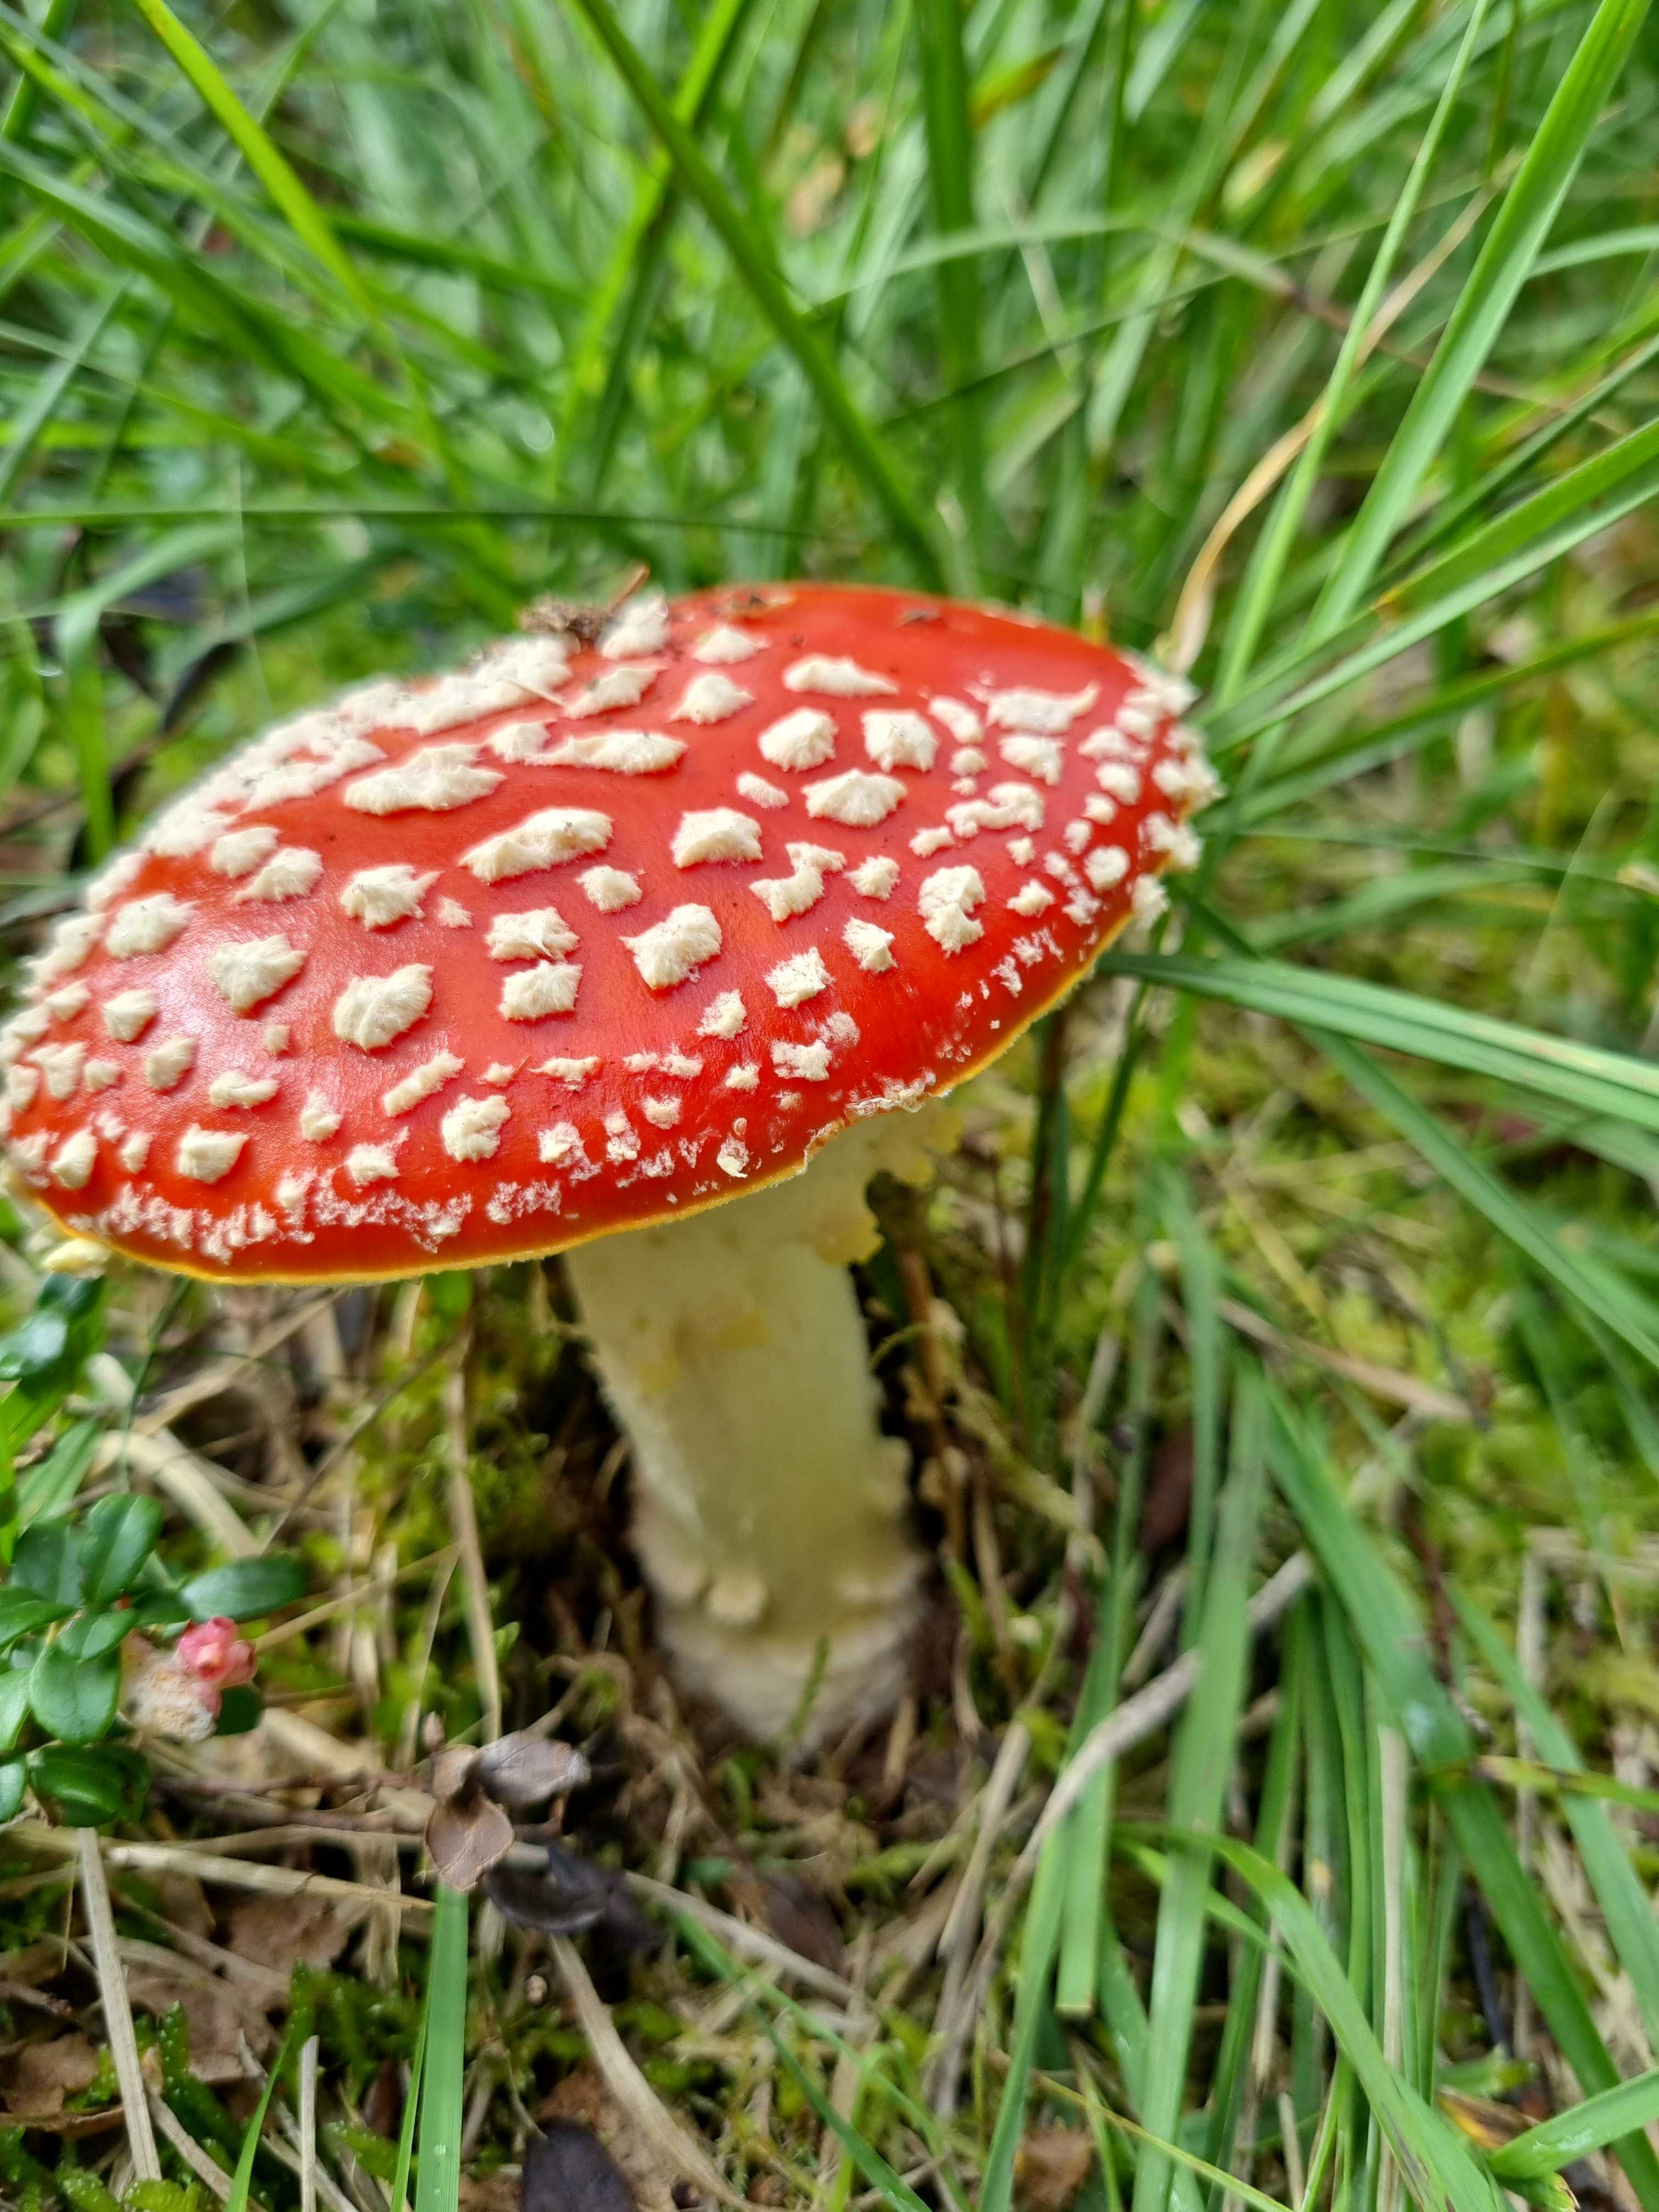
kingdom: Fungi
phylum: Basidiomycota
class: Agaricomycetes
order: Agaricales
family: Amanitaceae
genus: Amanita
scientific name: Amanita muscaria
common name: rød fluesvamp
